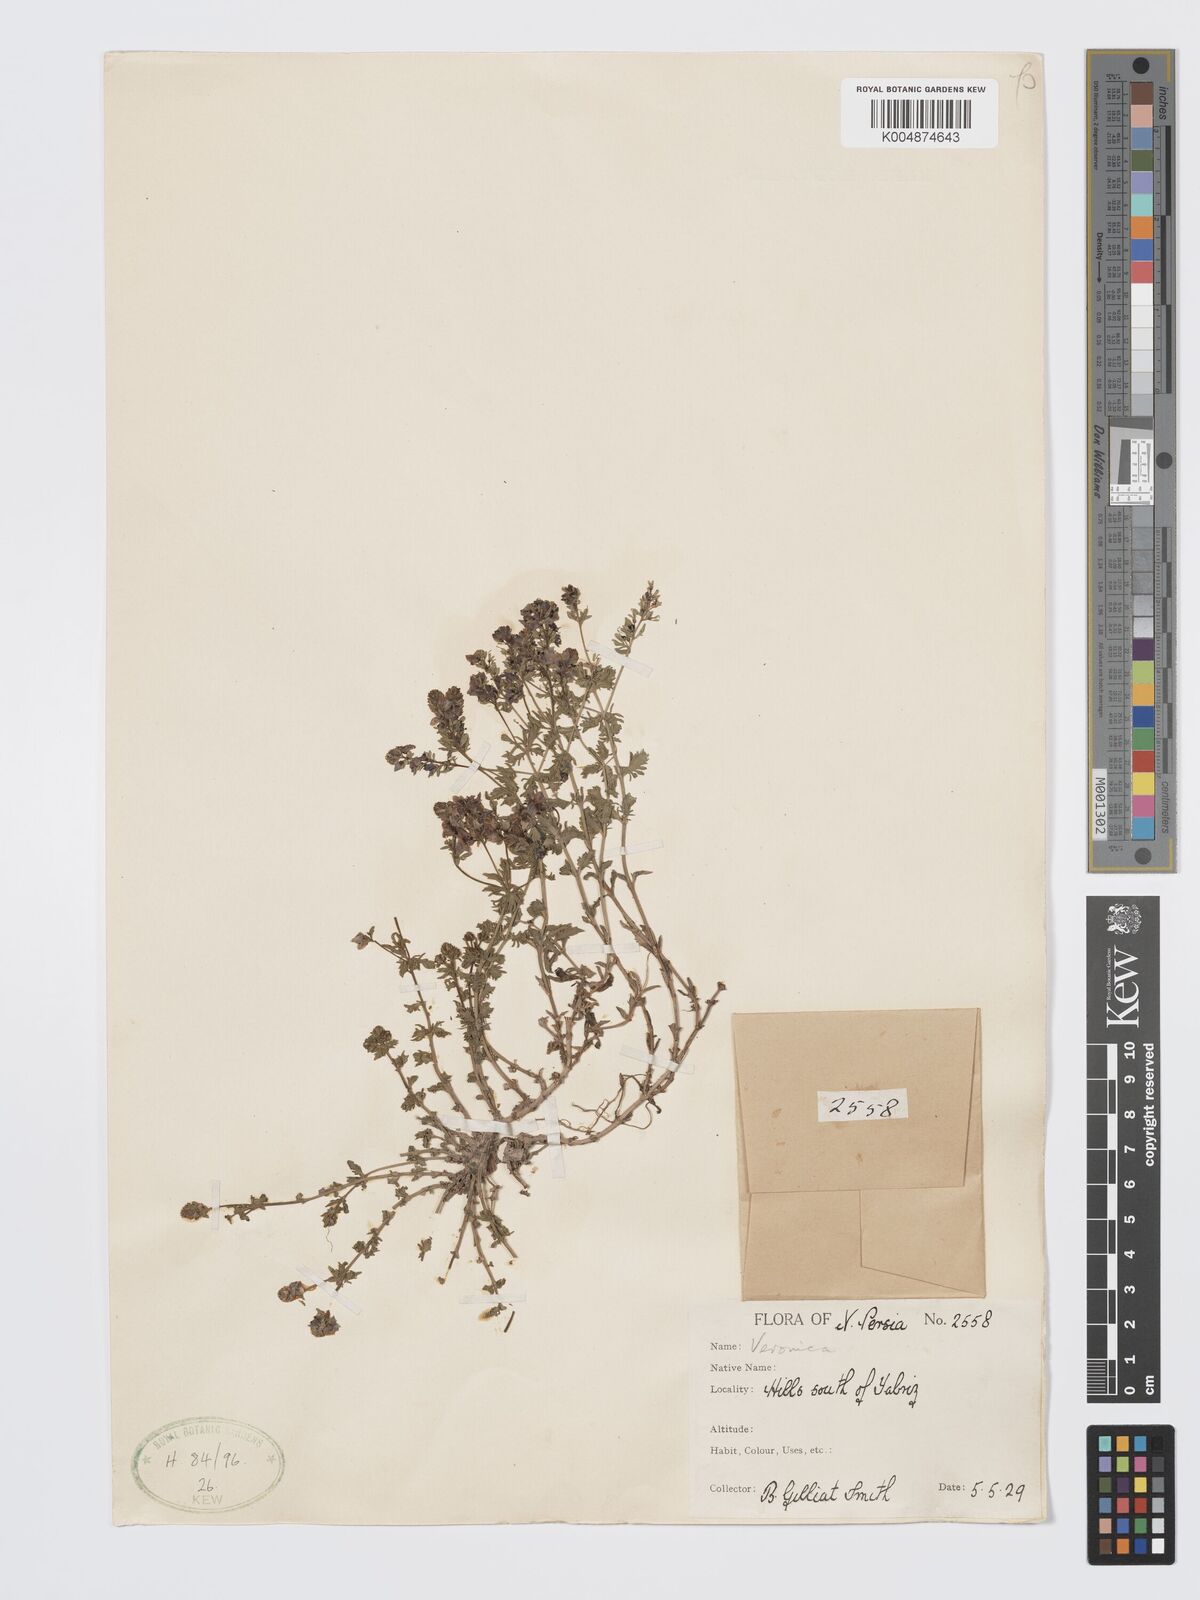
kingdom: Plantae
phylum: Tracheophyta
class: Magnoliopsida
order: Lamiales
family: Plantaginaceae
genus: Veronica
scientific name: Veronica
